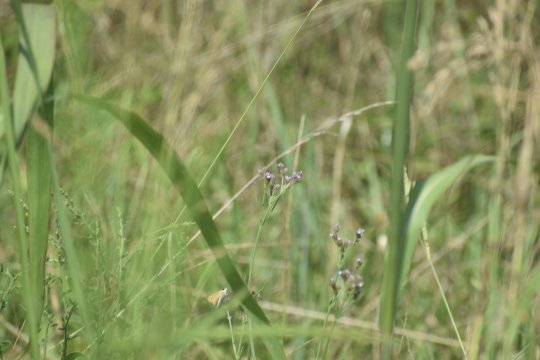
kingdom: Animalia
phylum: Arthropoda
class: Insecta
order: Lepidoptera
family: Hesperiidae
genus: Hylephila
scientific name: Hylephila phyleus
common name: Fiery Skipper
